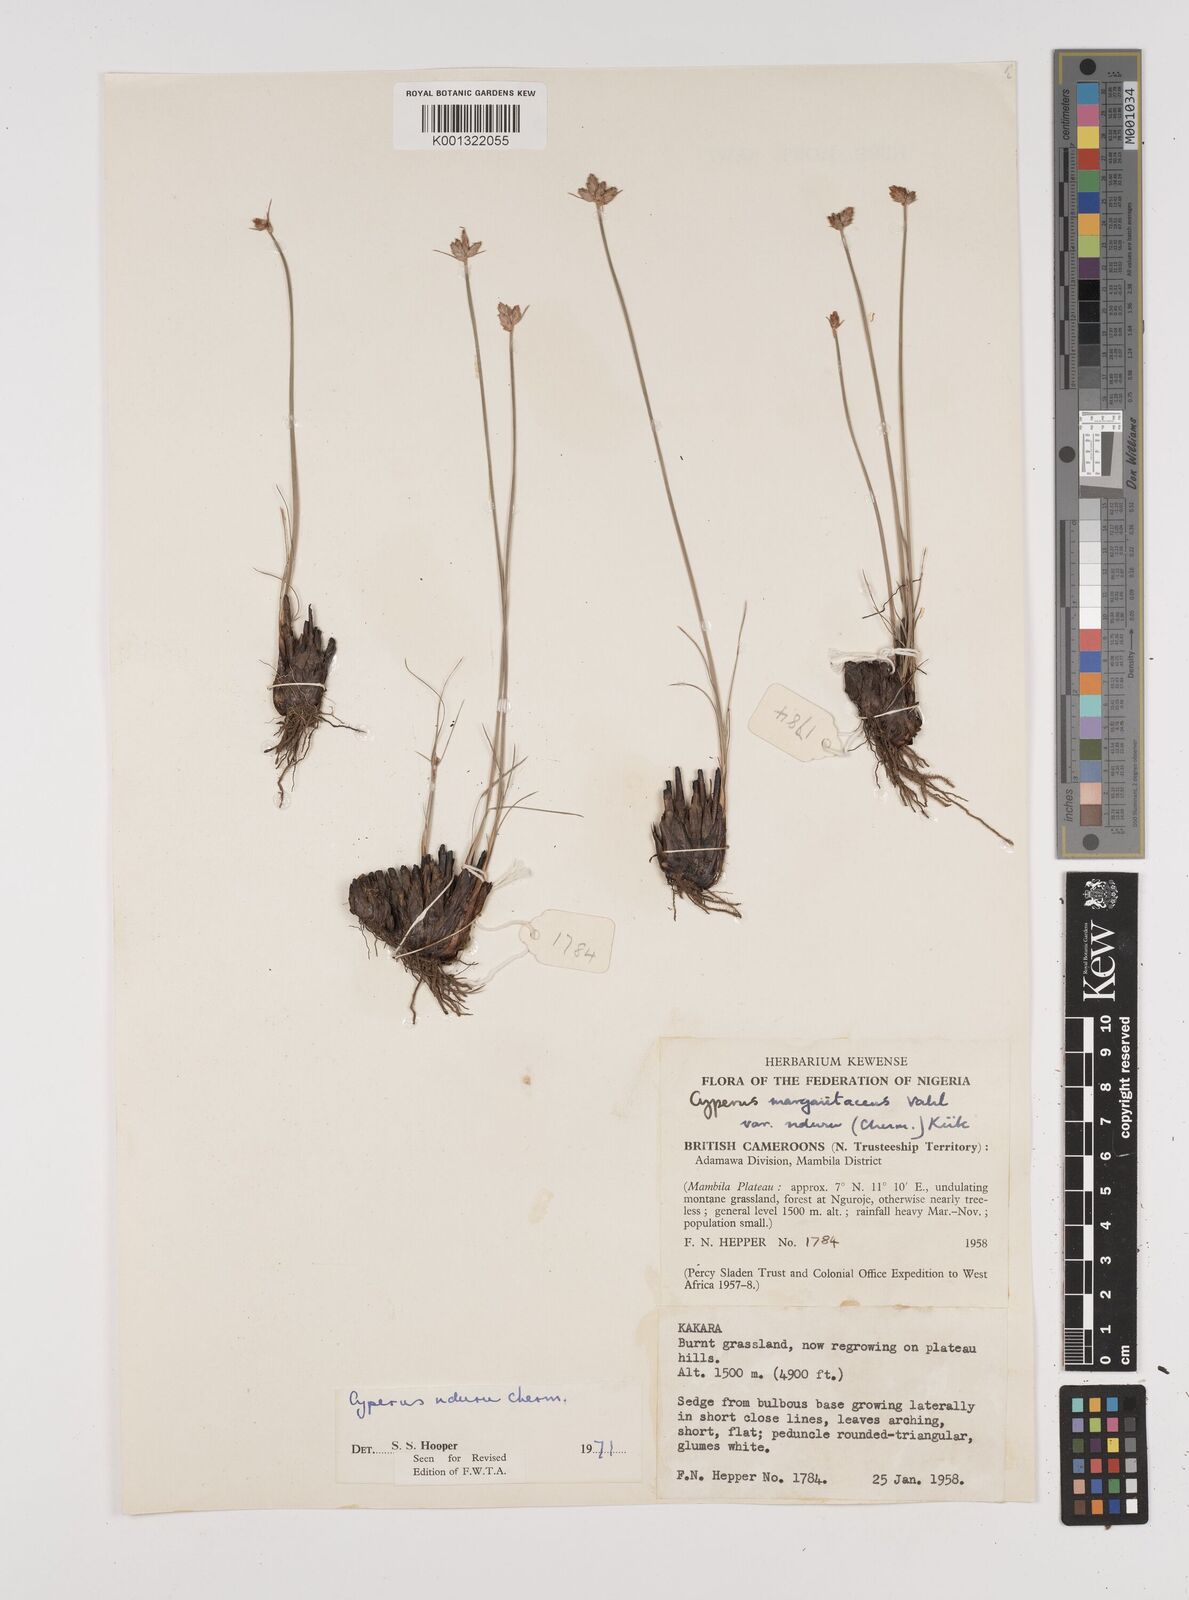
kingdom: Plantae
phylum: Tracheophyta
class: Liliopsida
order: Poales
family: Cyperaceae
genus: Cyperus
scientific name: Cyperus nduru
